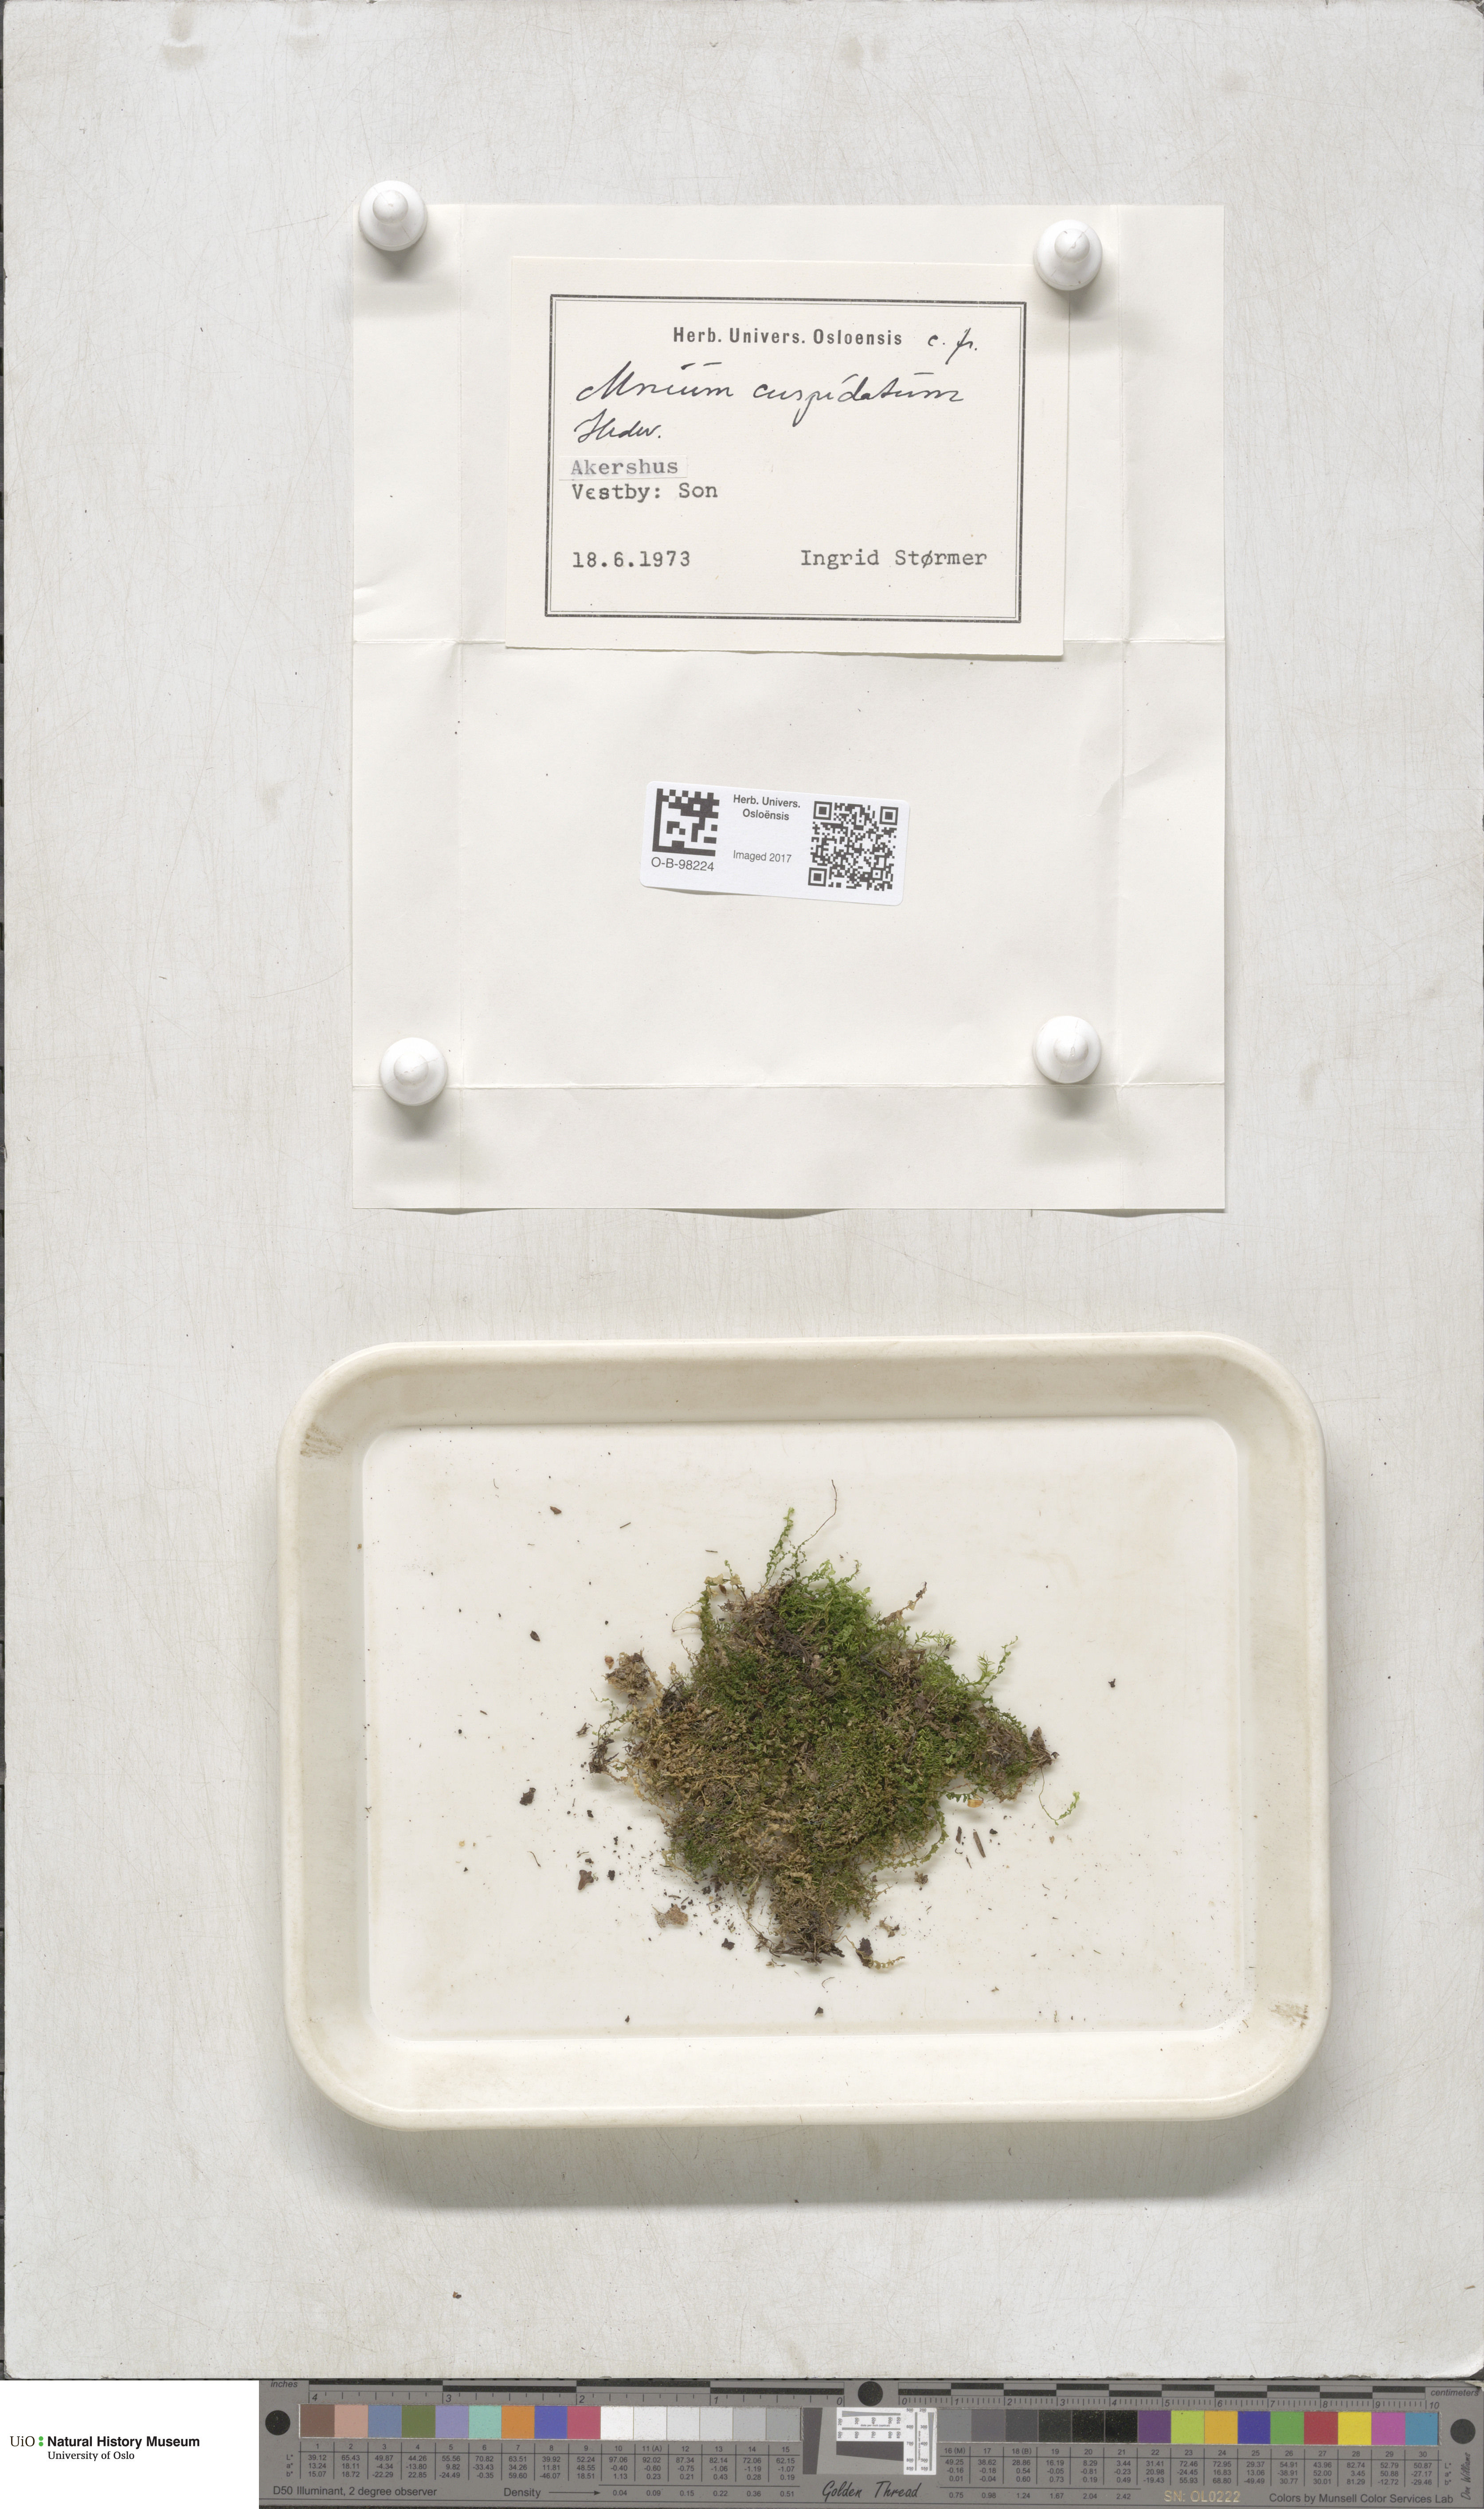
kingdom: Plantae
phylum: Bryophyta
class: Bryopsida
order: Bryales
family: Mniaceae
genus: Plagiomnium
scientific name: Plagiomnium affine
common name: Many-fruited thyme-moss
